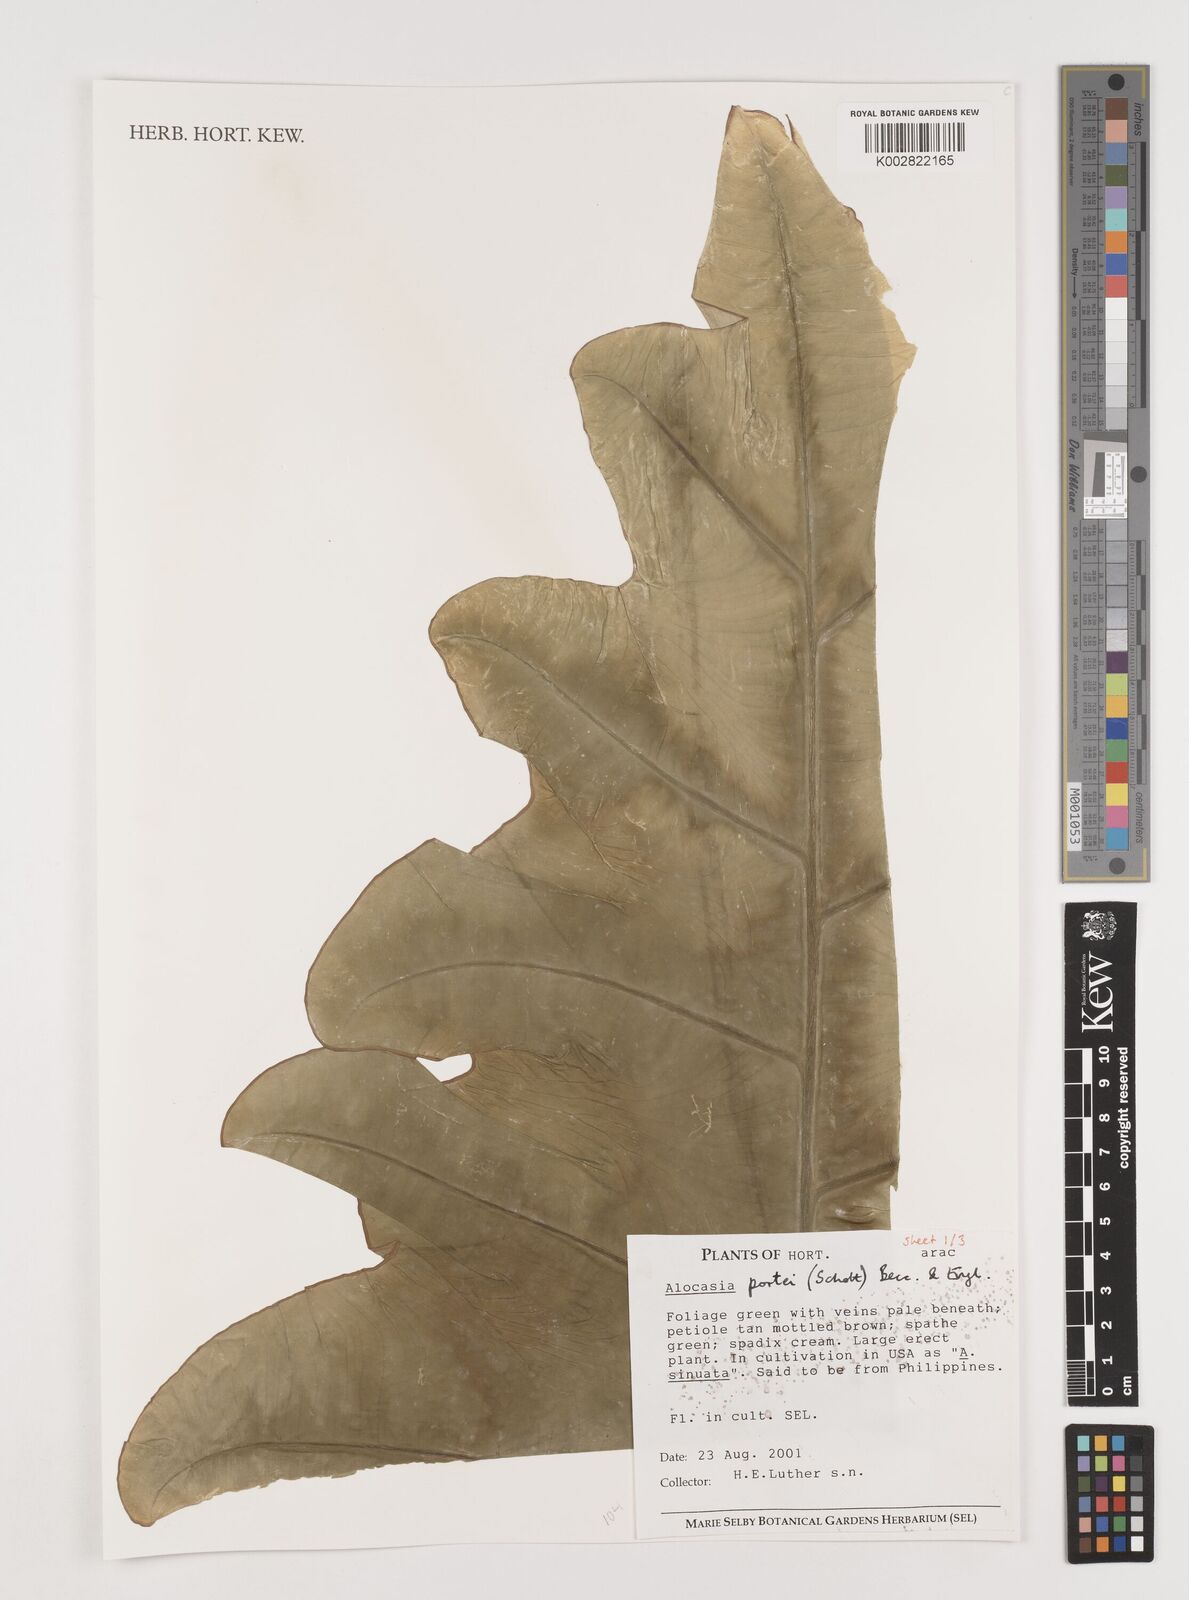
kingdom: Plantae
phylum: Tracheophyta
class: Liliopsida
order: Alismatales
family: Araceae
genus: Alocasia
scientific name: Alocasia portei
